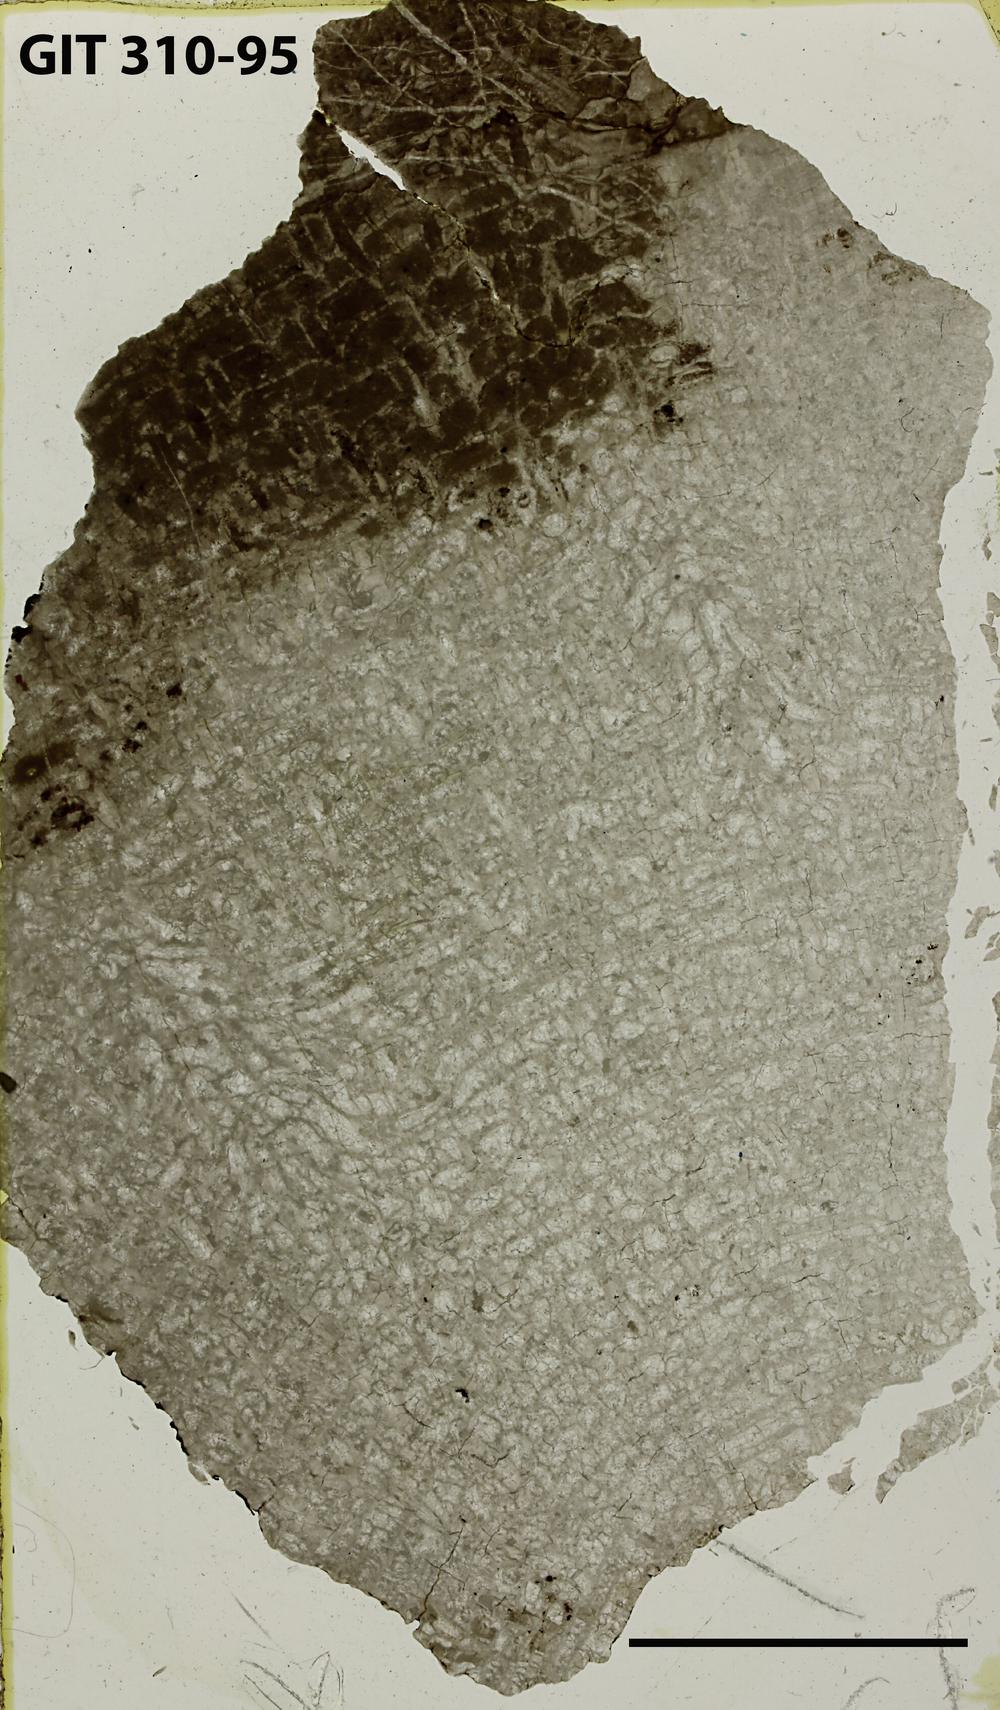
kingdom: Animalia
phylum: Porifera
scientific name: Porifera
